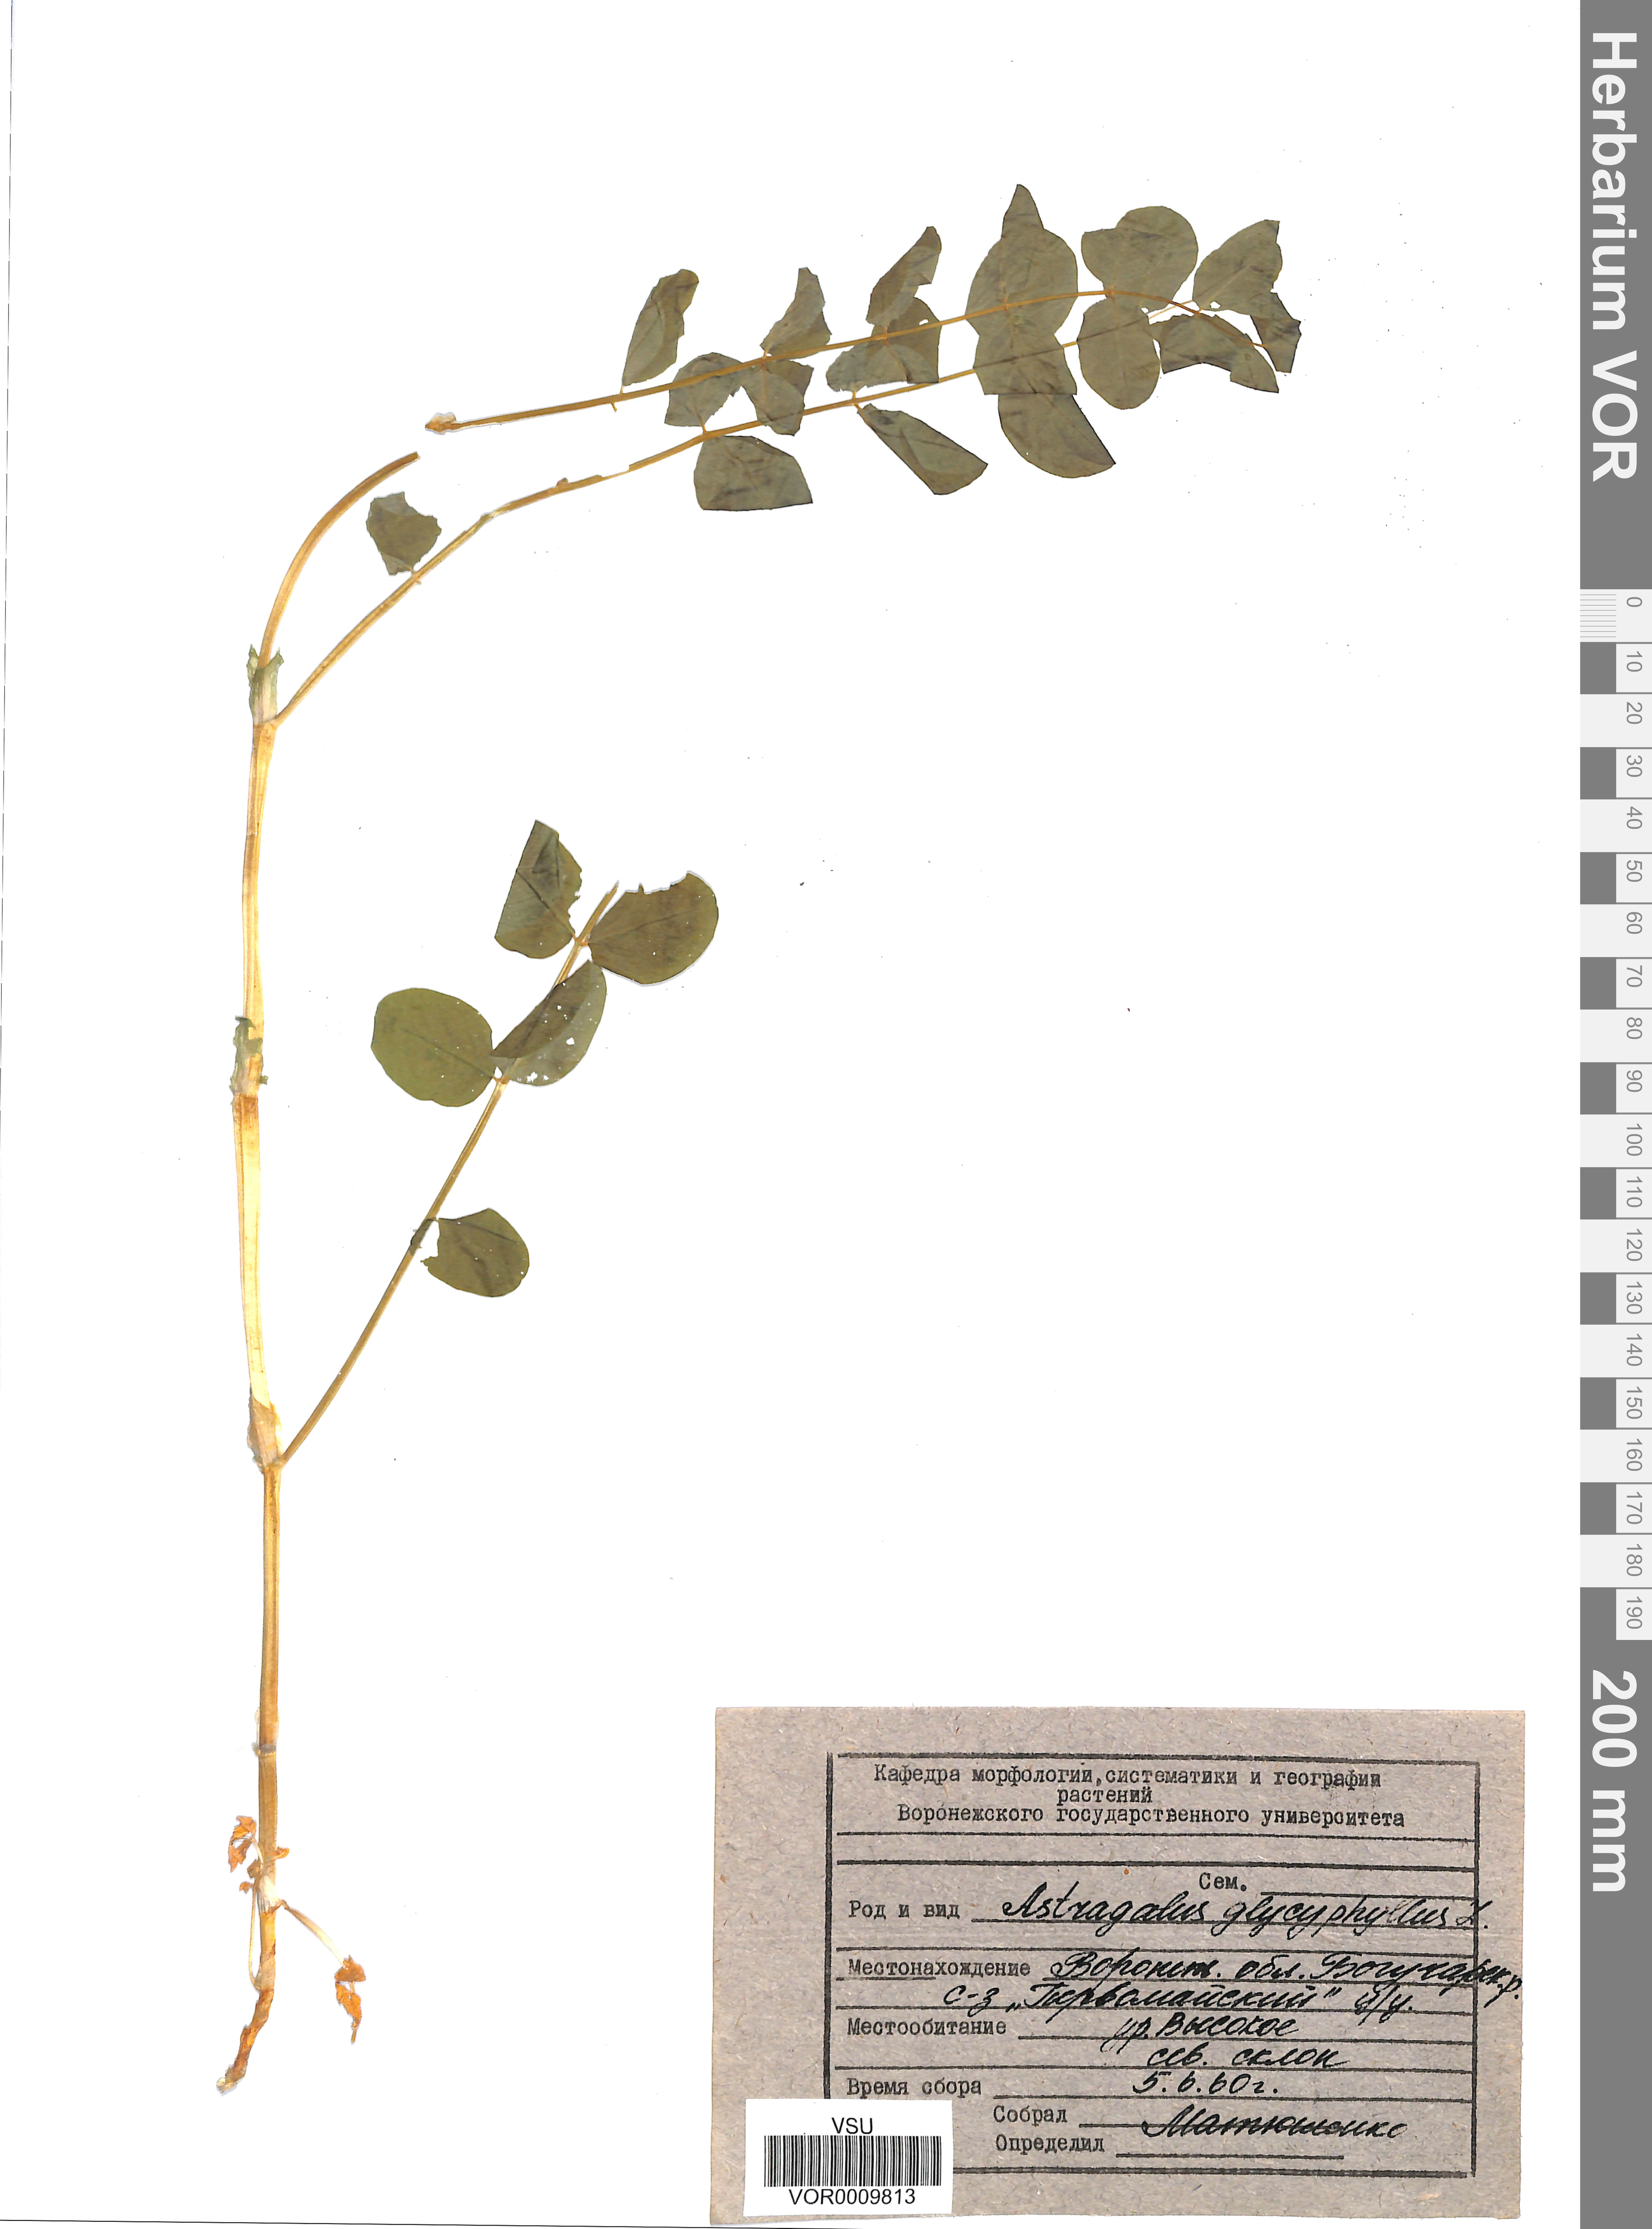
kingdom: Plantae
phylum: Tracheophyta
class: Magnoliopsida
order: Fabales
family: Fabaceae
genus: Astragalus
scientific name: Astragalus glycyphyllos
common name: Wild liquorice
